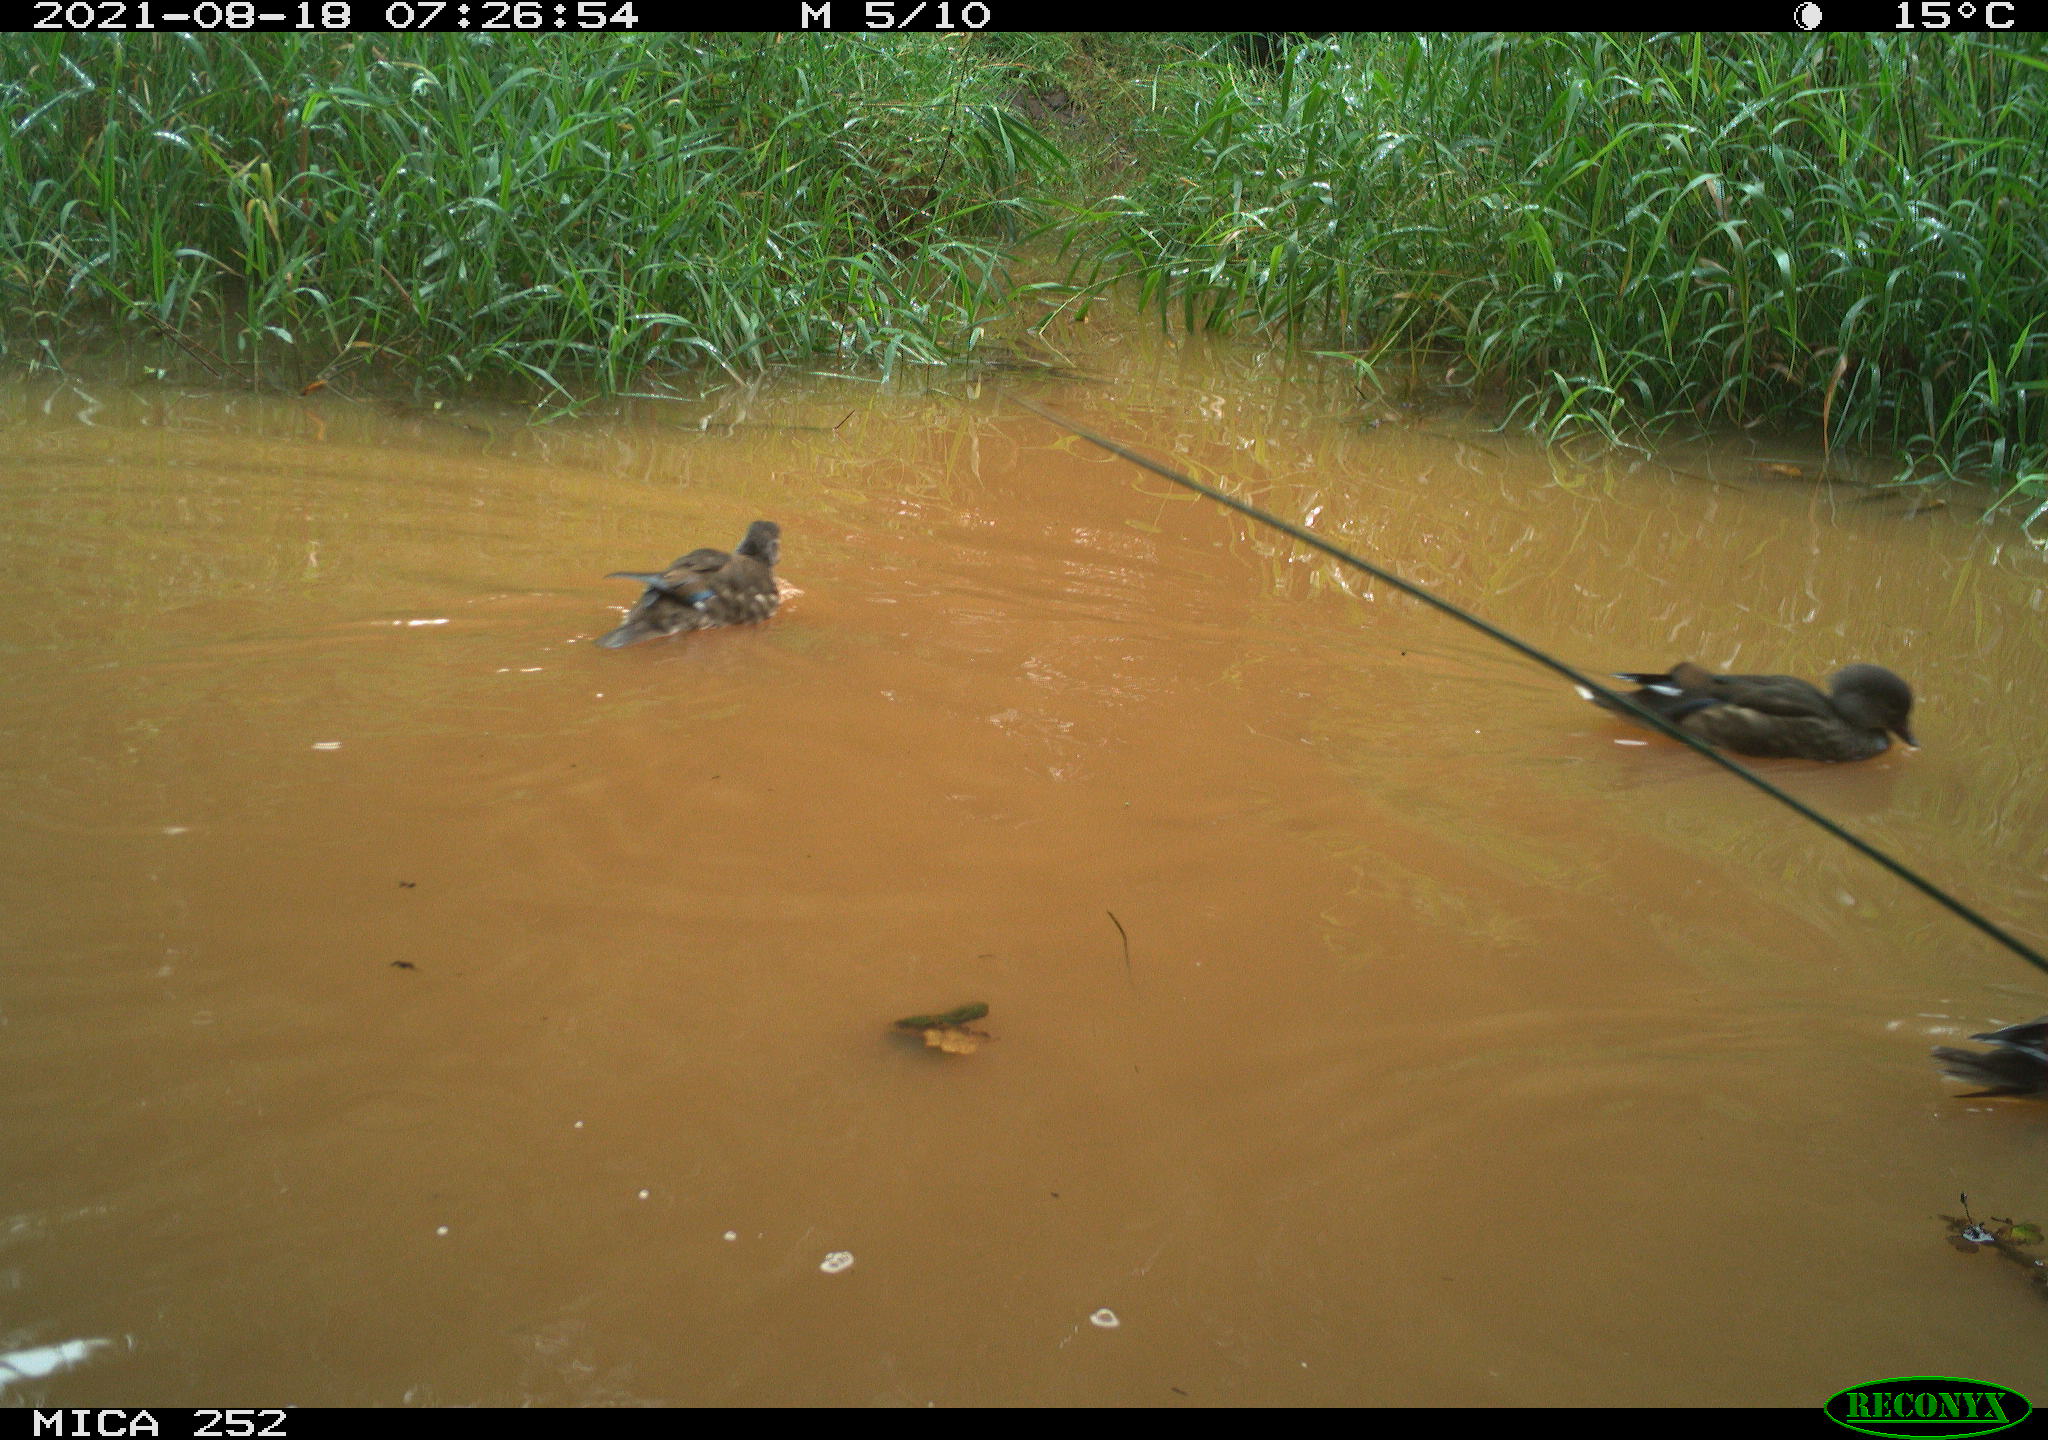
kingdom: Animalia
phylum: Chordata
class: Aves
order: Anseriformes
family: Anatidae
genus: Mareca
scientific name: Mareca strepera
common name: Gadwall
